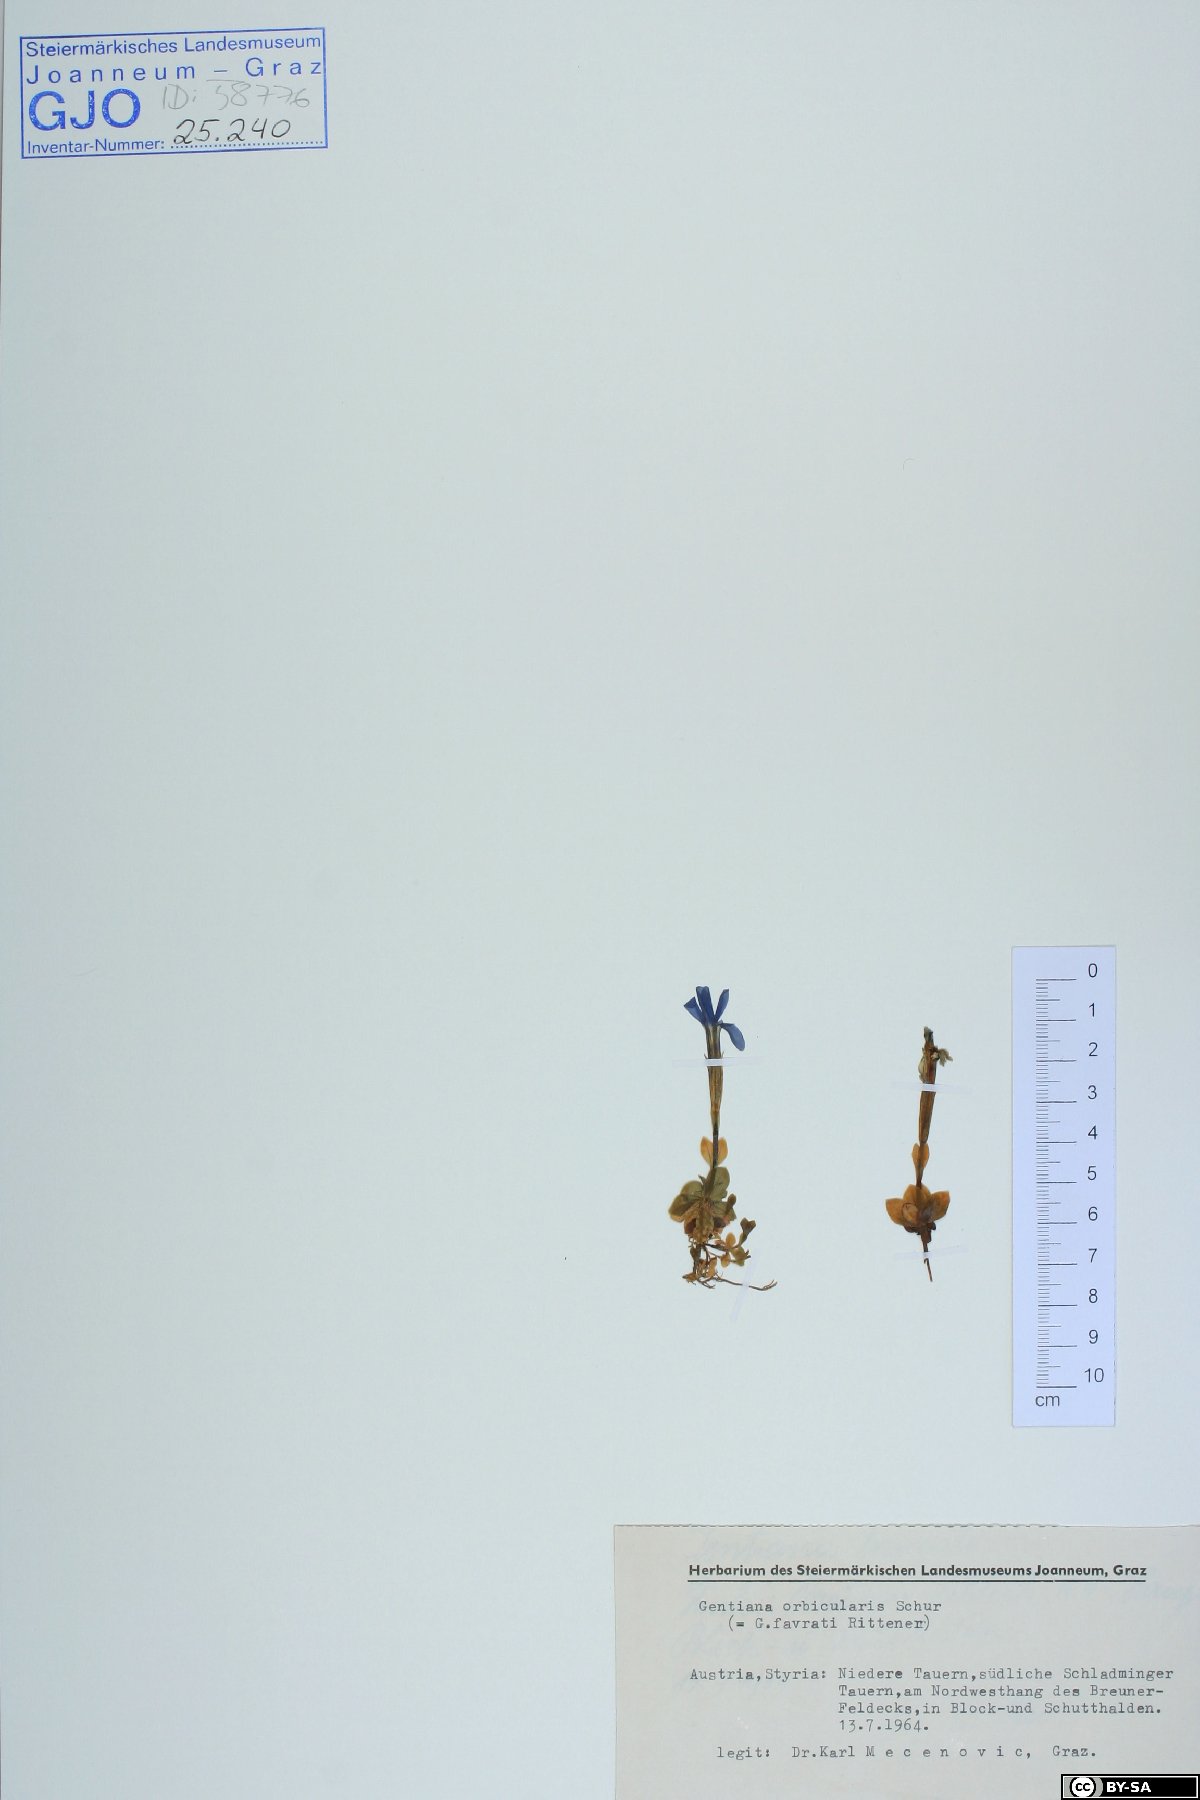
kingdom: Plantae
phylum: Tracheophyta
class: Magnoliopsida
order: Gentianales
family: Gentianaceae
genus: Gentiana
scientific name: Gentiana orbicularis
